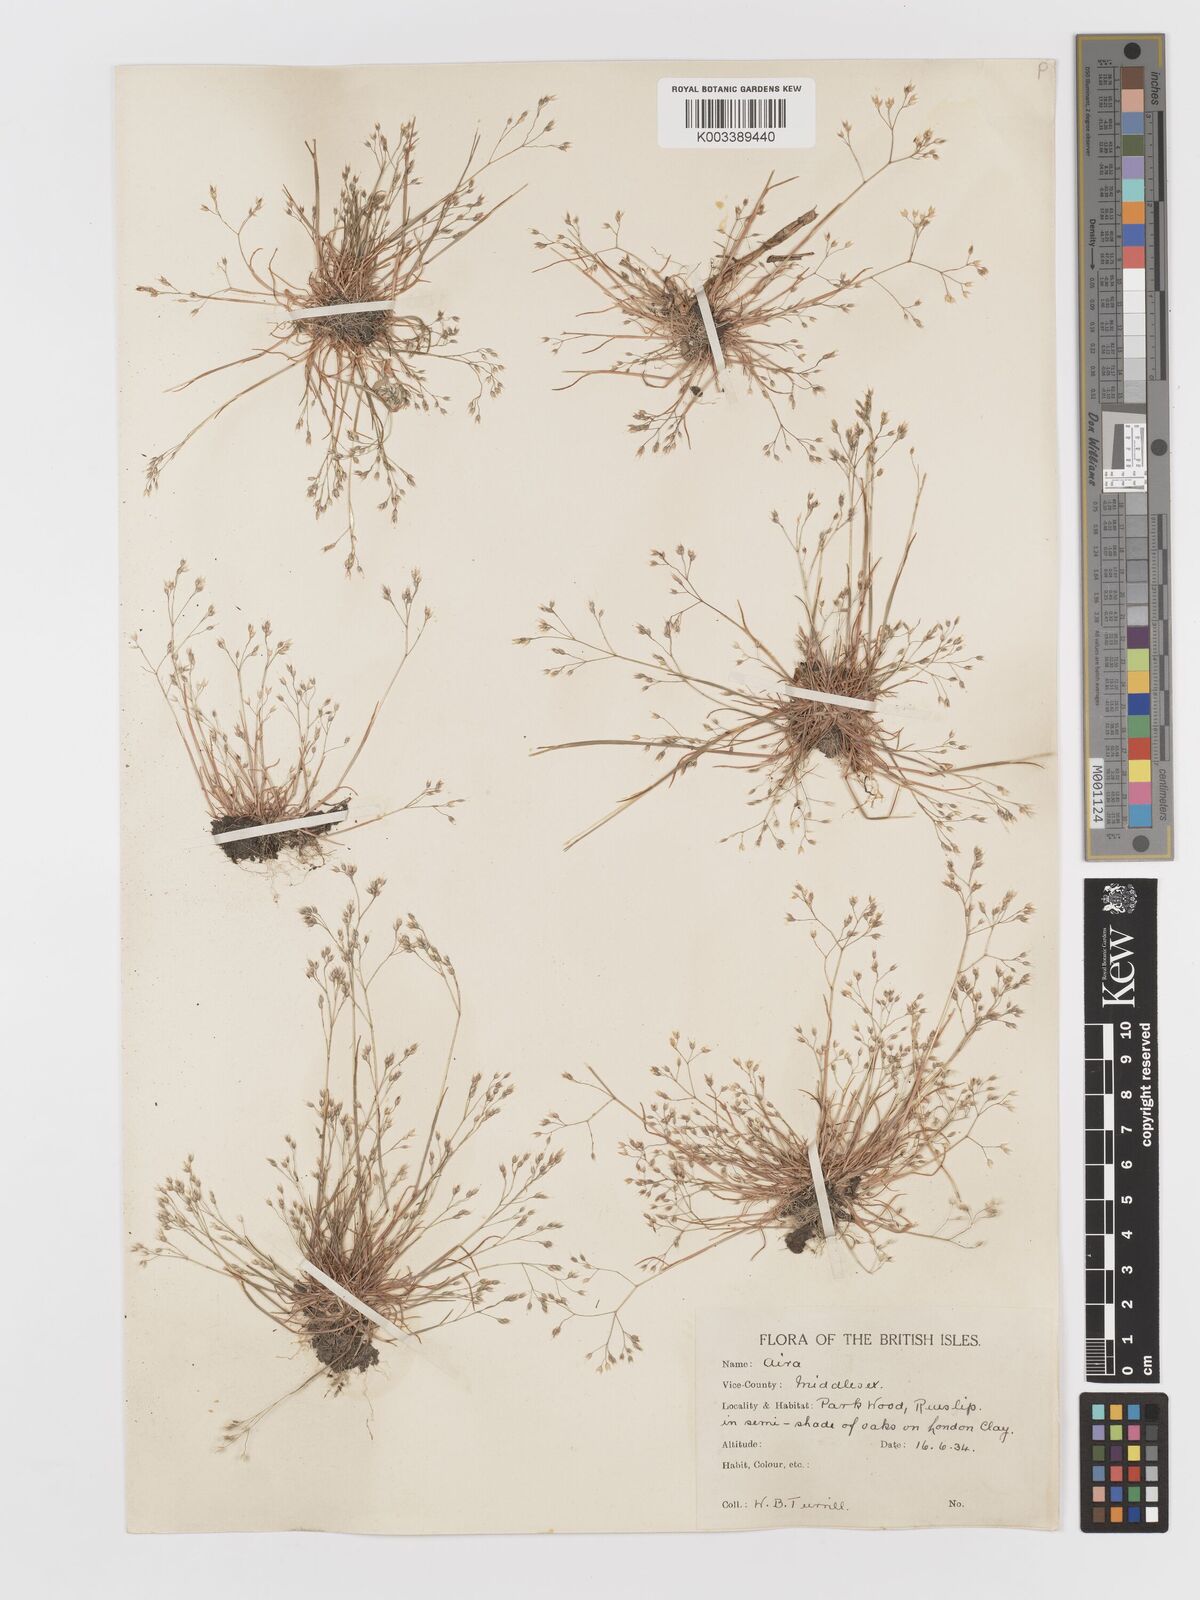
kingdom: Plantae
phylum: Tracheophyta
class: Liliopsida
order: Poales
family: Poaceae
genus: Aira
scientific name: Aira caryophyllea
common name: Silver hairgrass
